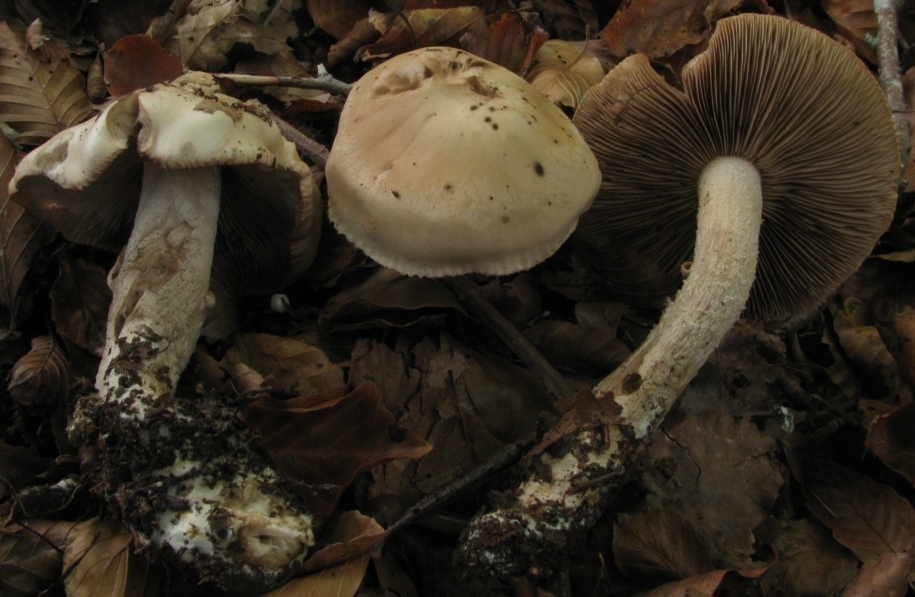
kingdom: Fungi
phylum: Basidiomycota
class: Agaricomycetes
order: Agaricales
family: Hymenogastraceae
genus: Hebeloma
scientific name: Hebeloma
